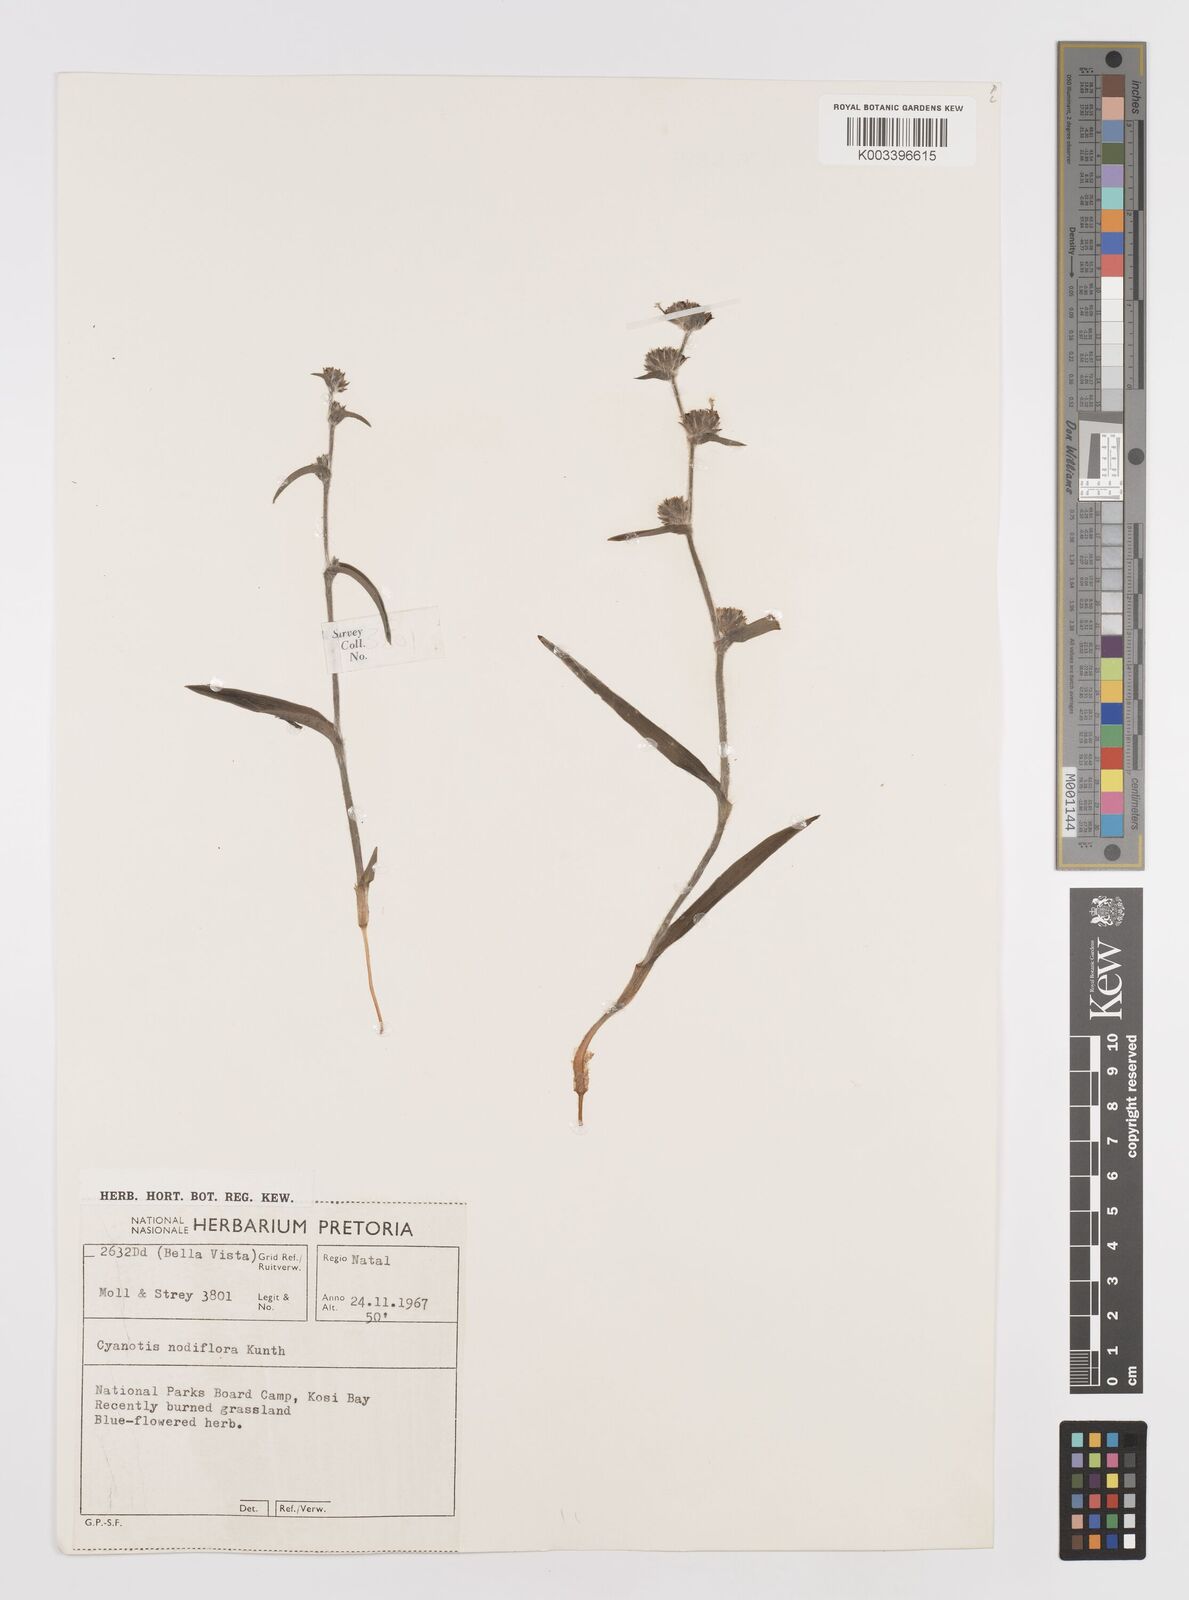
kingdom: Plantae
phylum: Tracheophyta
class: Liliopsida
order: Commelinales
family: Commelinaceae
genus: Cyanotis
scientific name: Cyanotis speciosa
